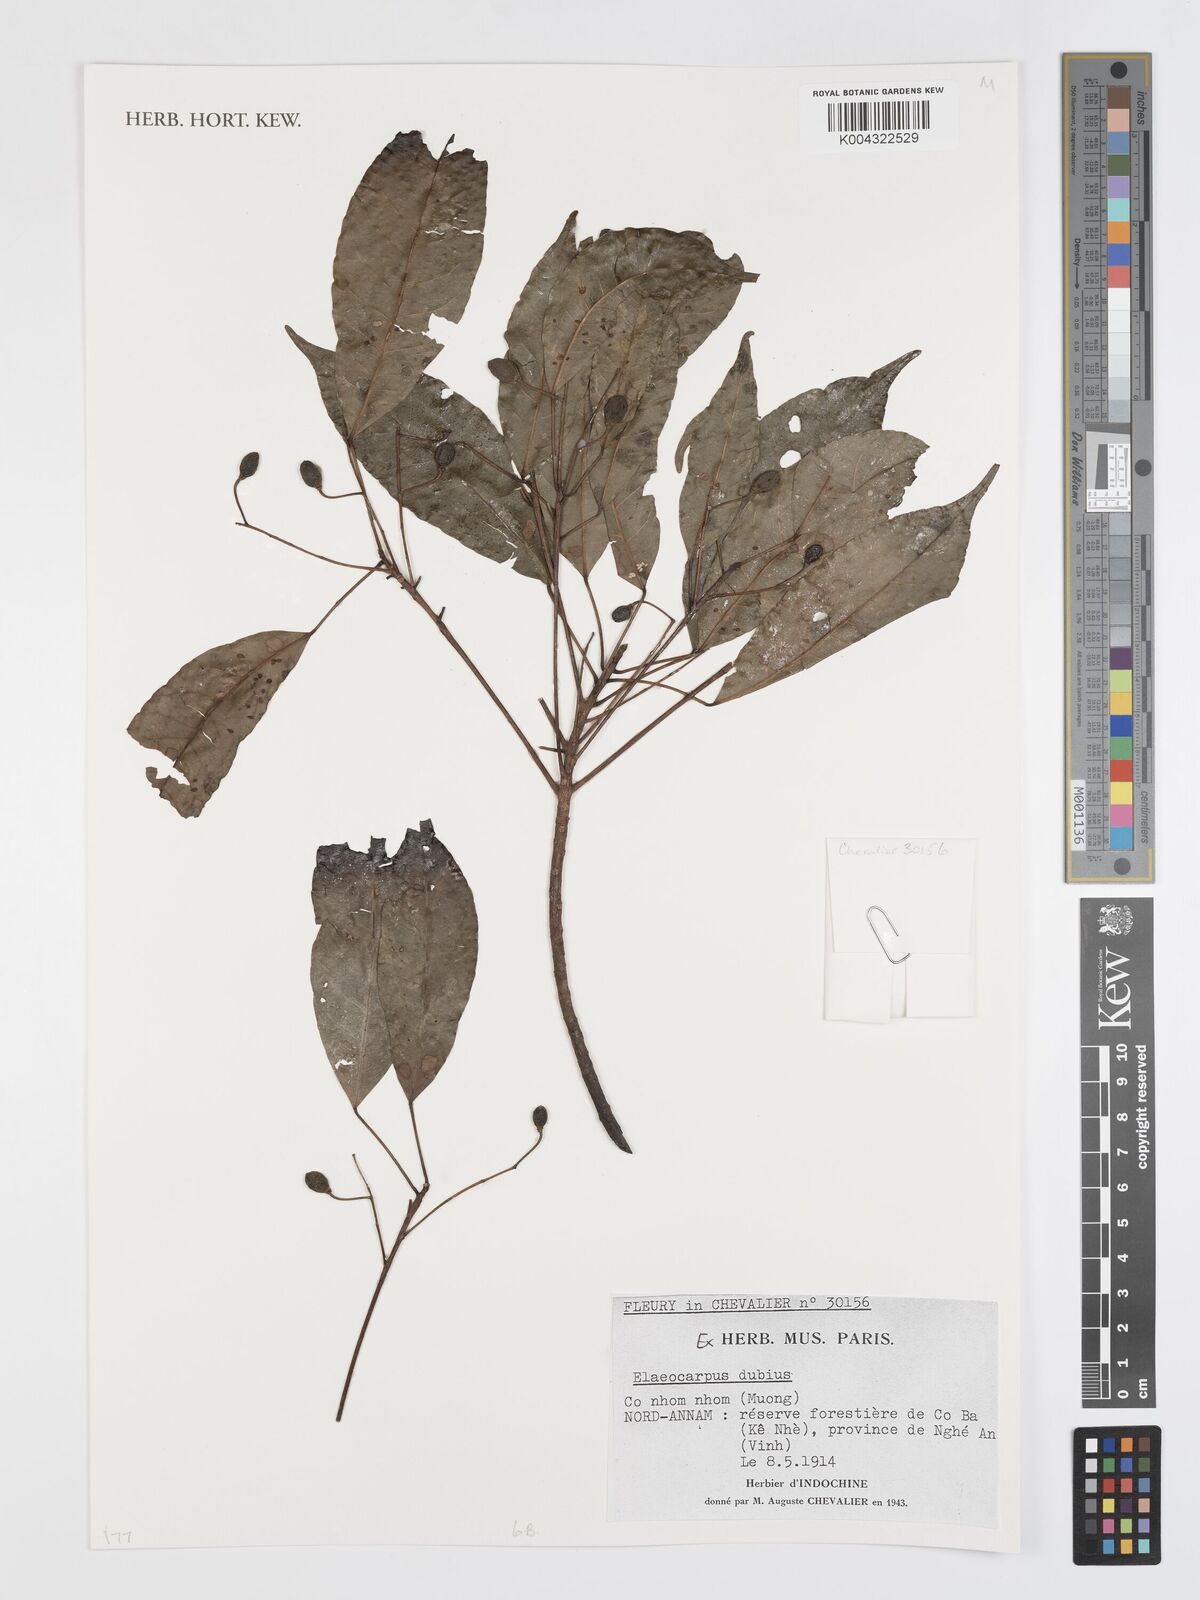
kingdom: Plantae
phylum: Tracheophyta
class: Magnoliopsida
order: Oxalidales
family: Elaeocarpaceae
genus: Elaeocarpus
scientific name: Elaeocarpus dubius
